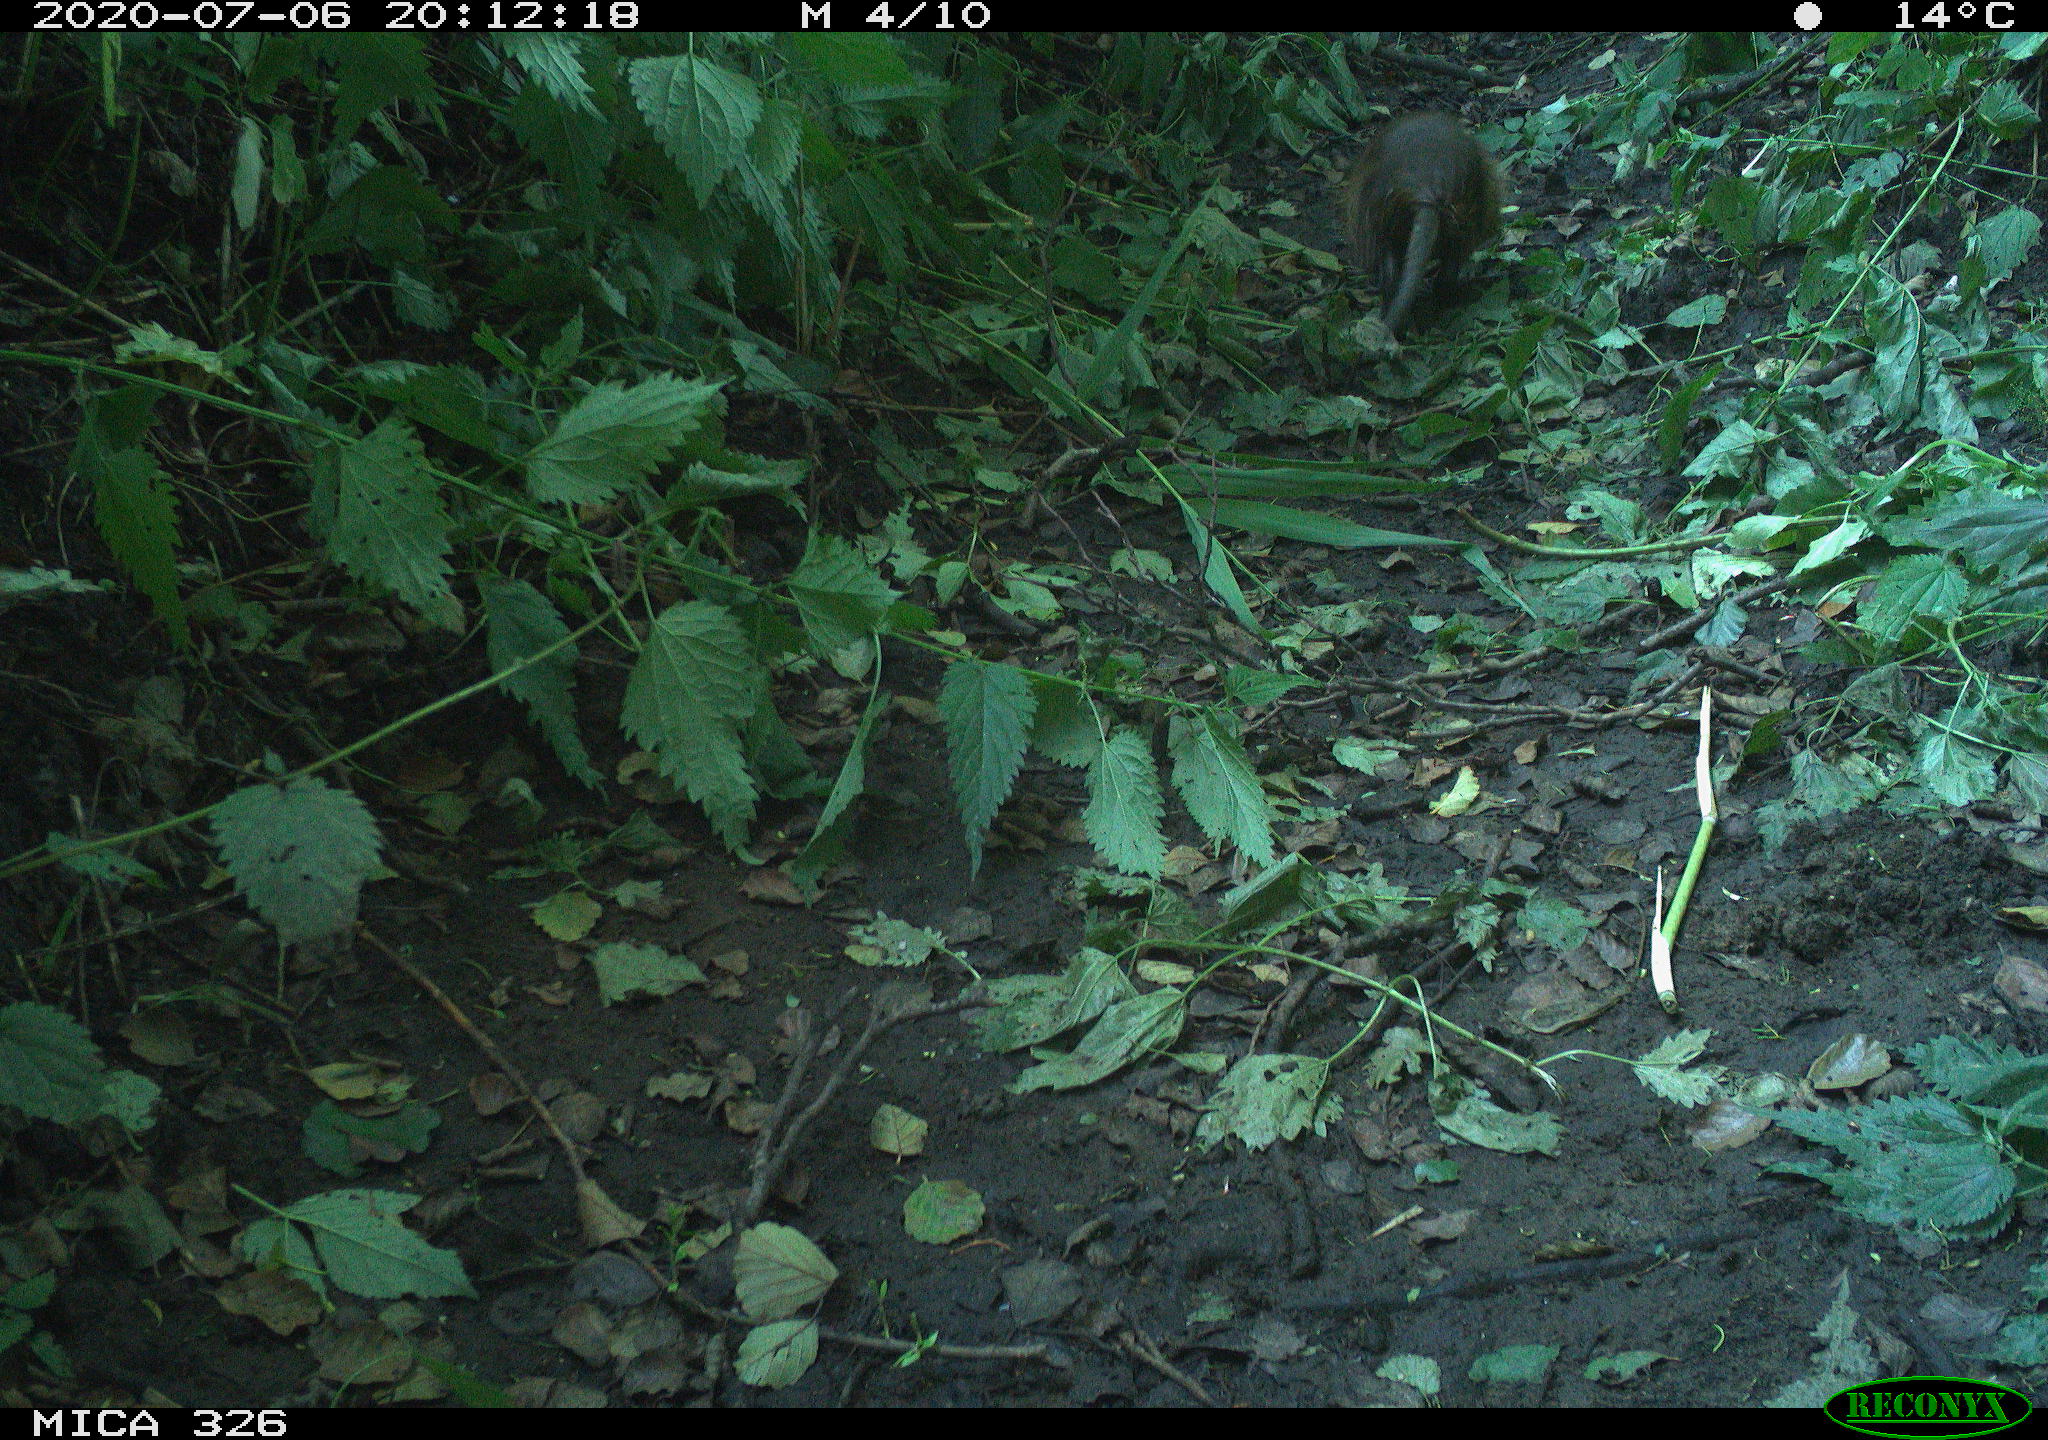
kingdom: Animalia
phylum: Chordata
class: Mammalia
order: Rodentia
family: Myocastoridae
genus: Myocastor
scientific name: Myocastor coypus
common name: Coypu
